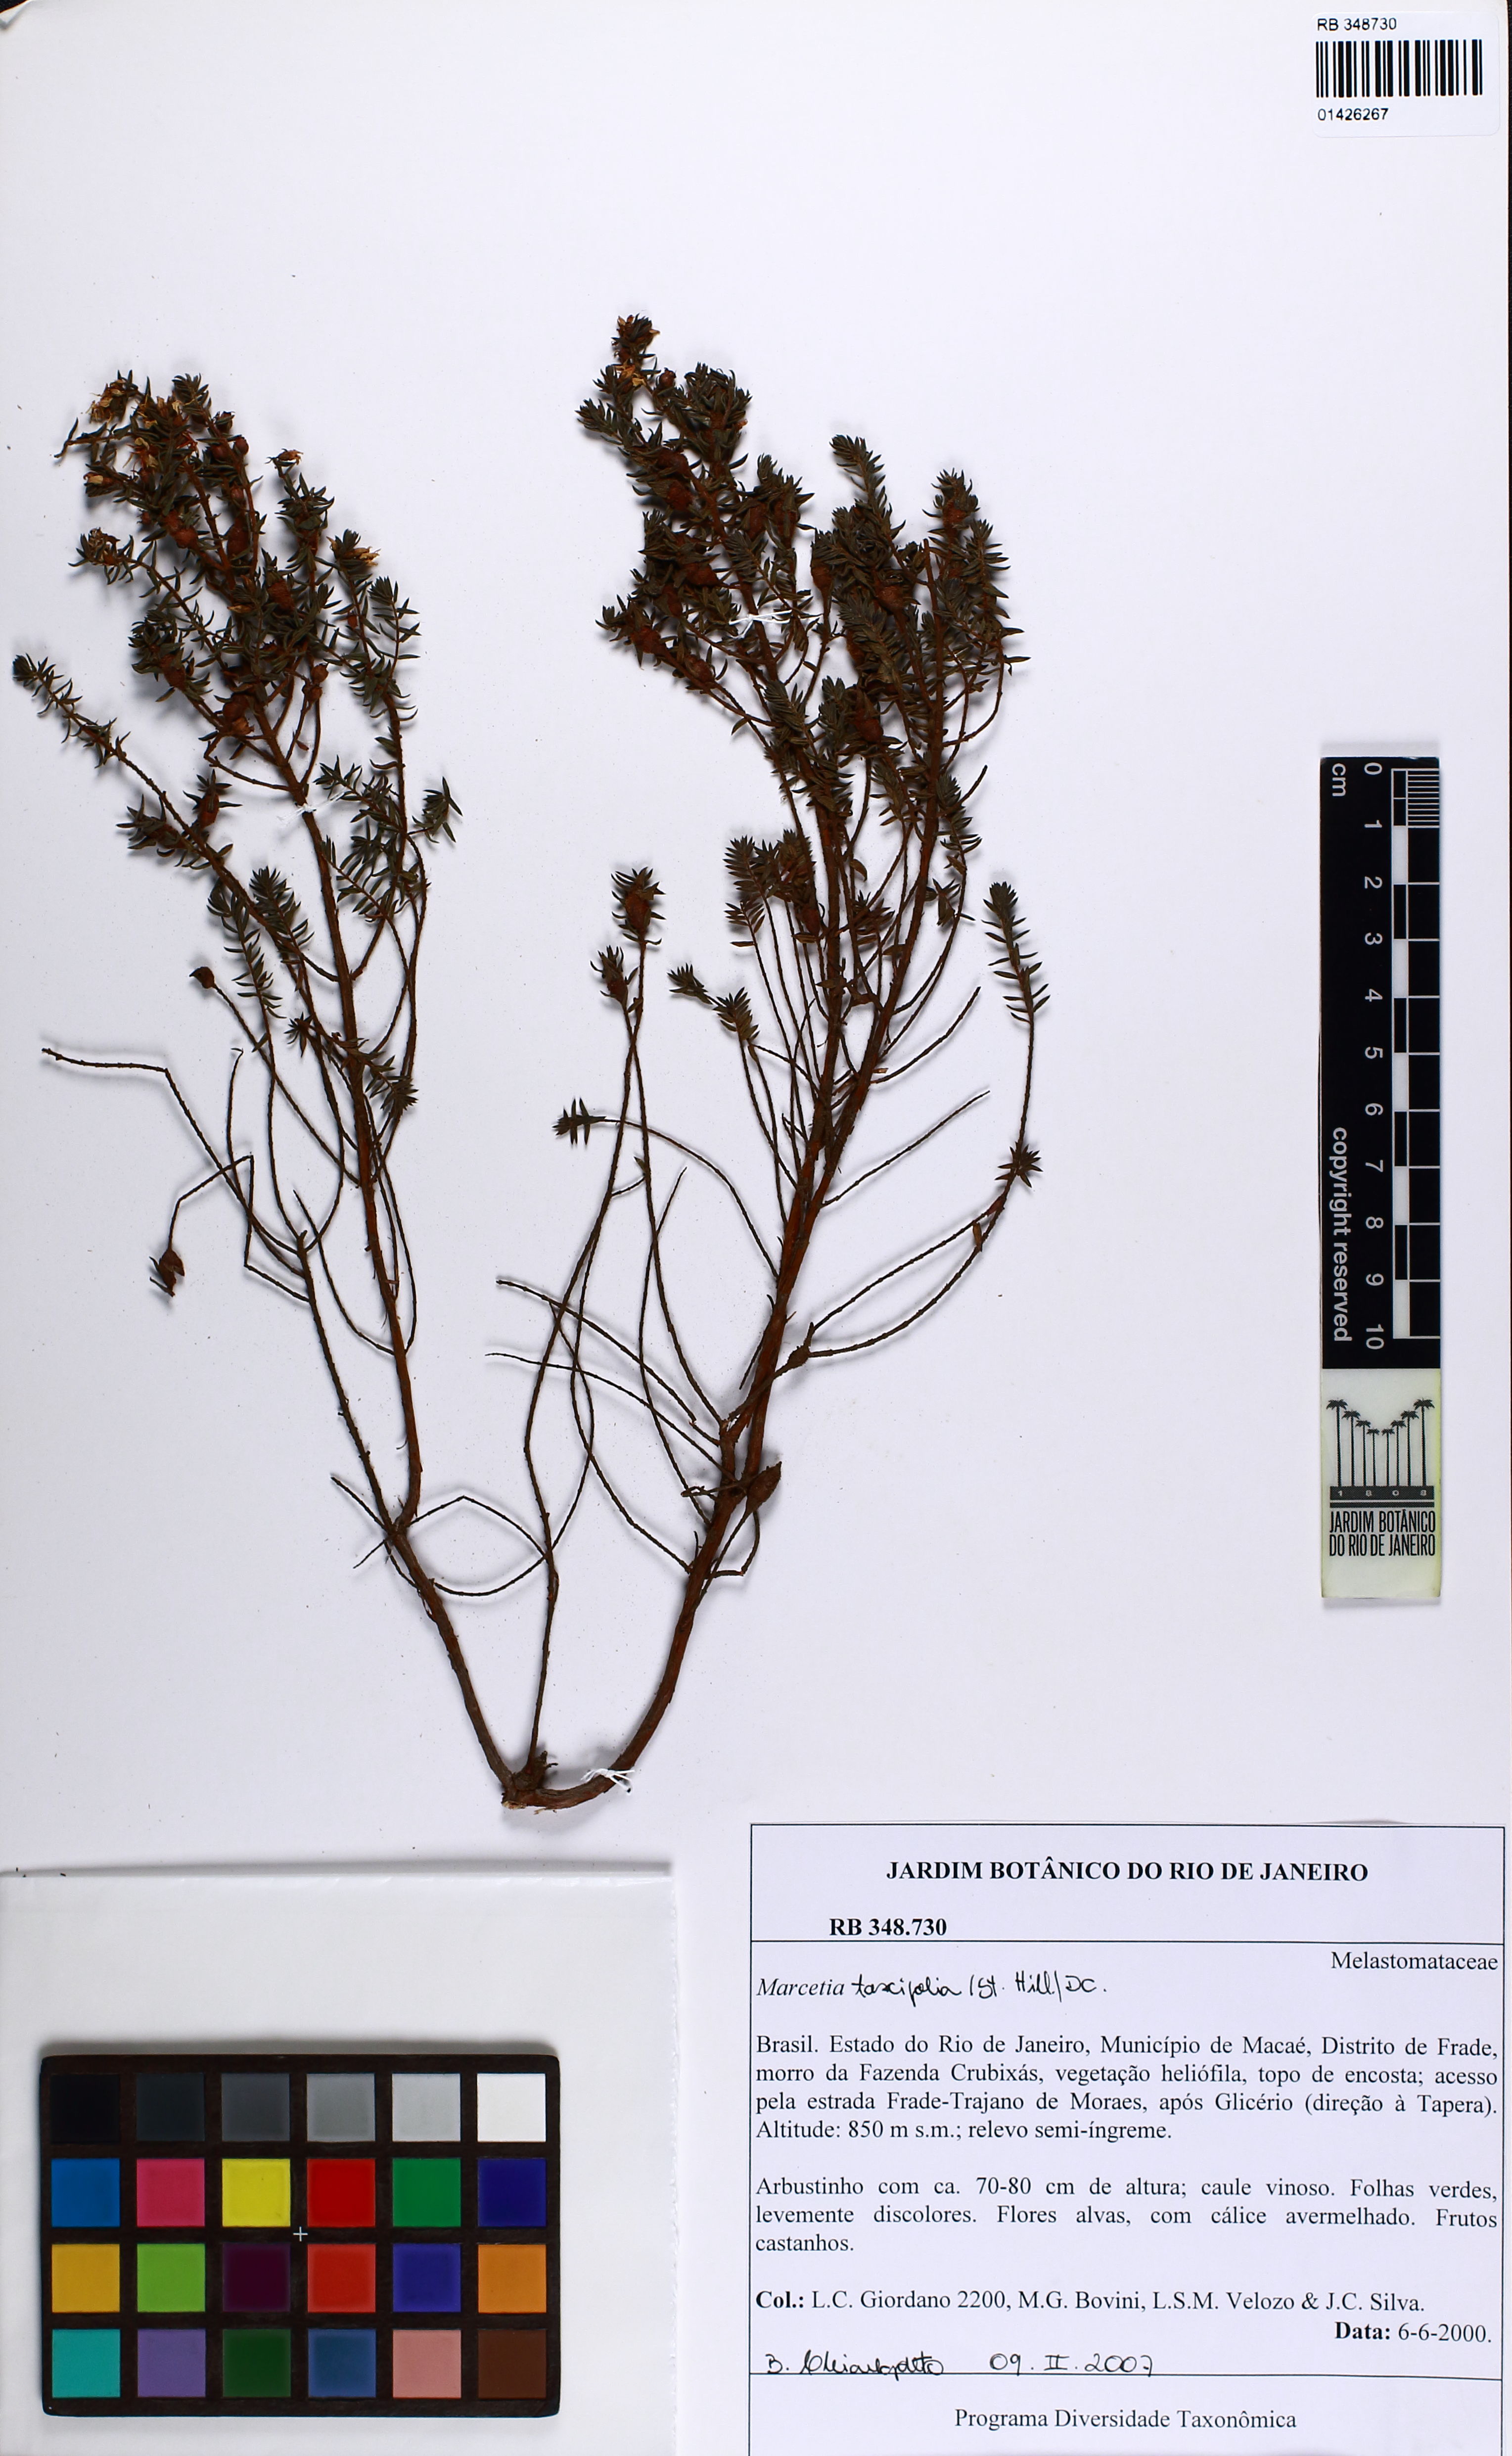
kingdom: Plantae
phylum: Tracheophyta
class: Magnoliopsida
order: Myrtales
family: Melastomataceae
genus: Marcetia
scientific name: Marcetia taxifolia
